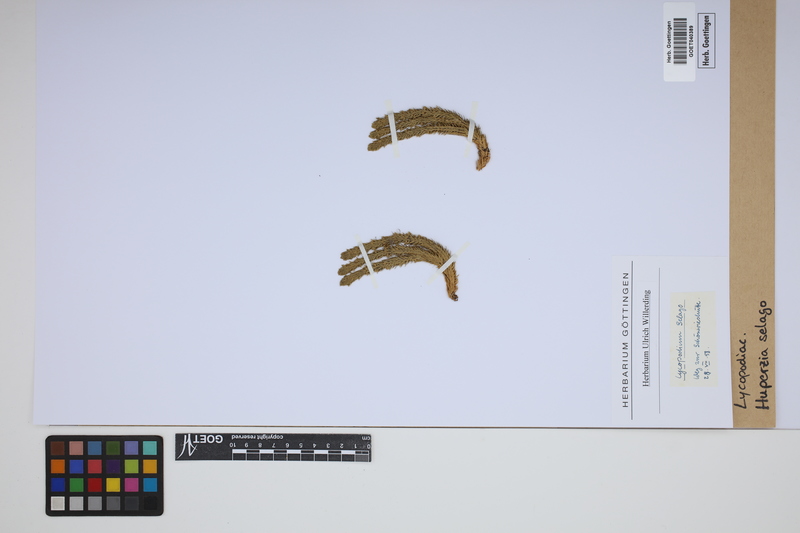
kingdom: Plantae
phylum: Tracheophyta
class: Lycopodiopsida
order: Lycopodiales
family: Lycopodiaceae
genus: Huperzia
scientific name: Huperzia selago
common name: Northern firmoss
